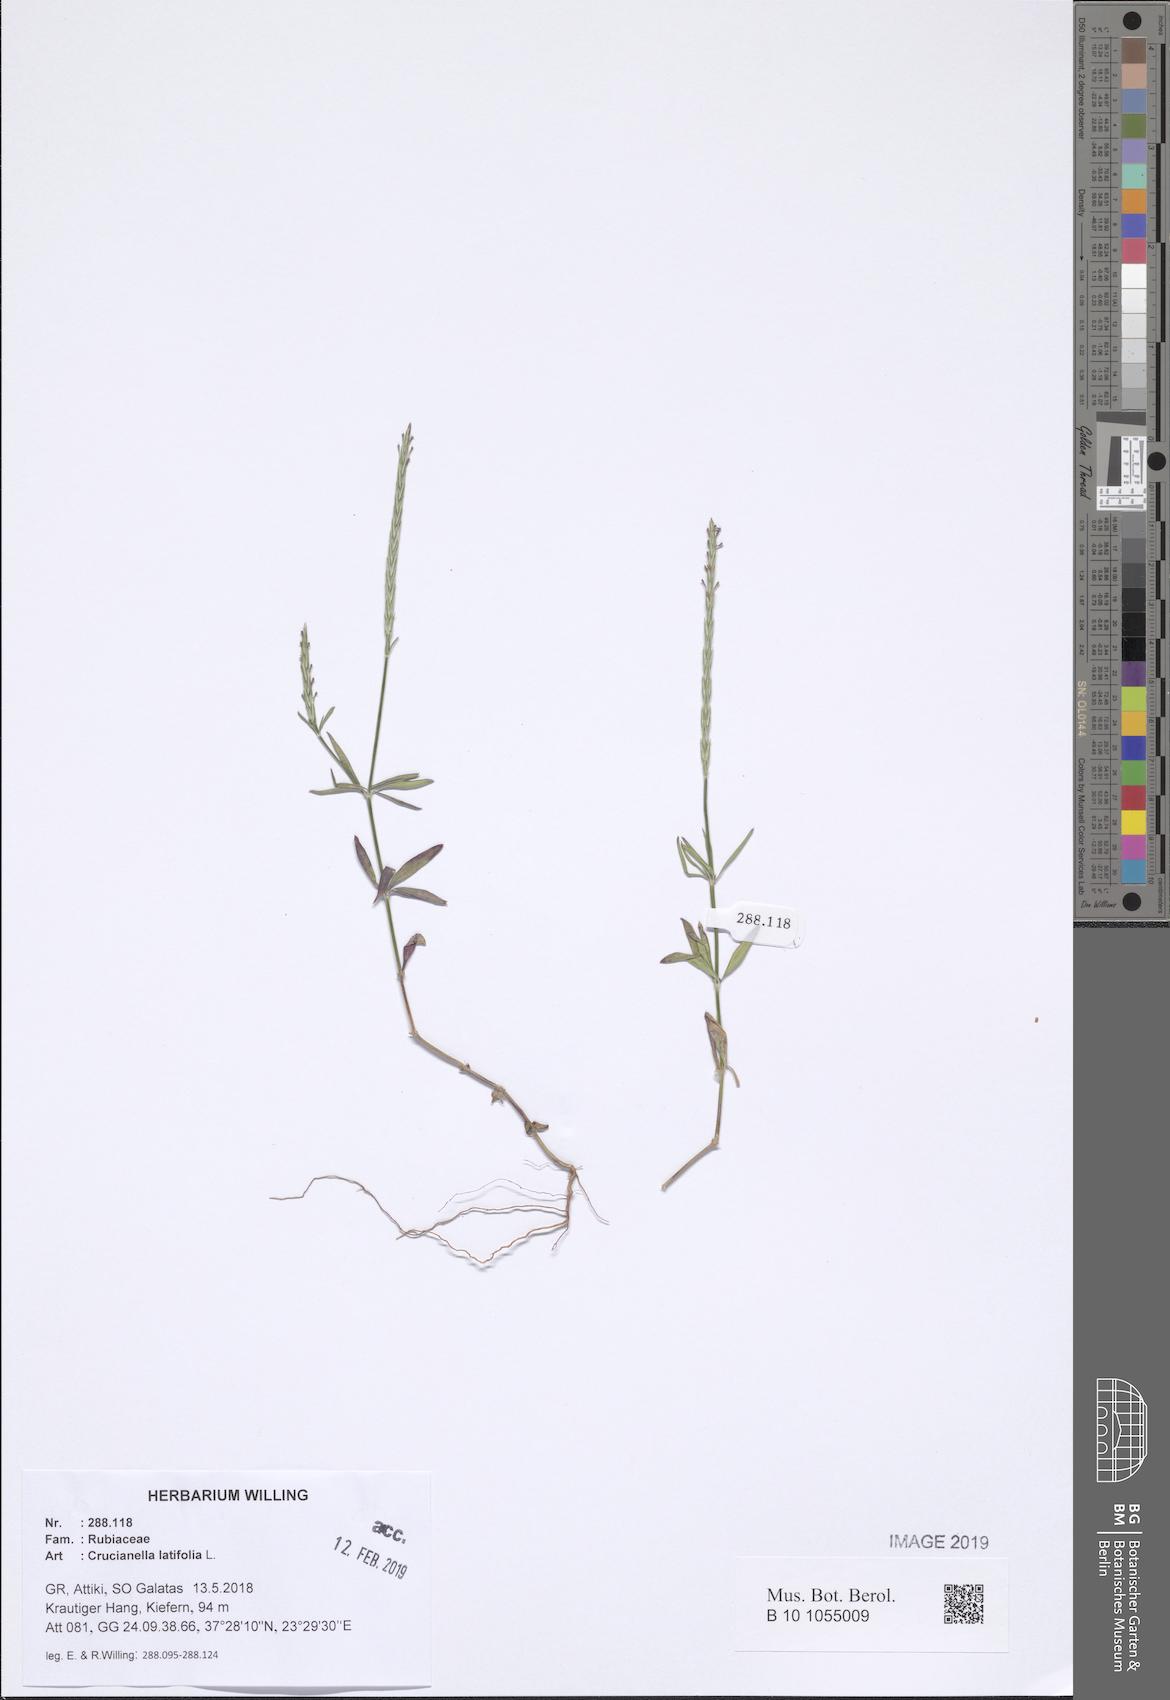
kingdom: Plantae
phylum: Tracheophyta
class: Magnoliopsida
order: Gentianales
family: Rubiaceae
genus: Crucianella
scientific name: Crucianella latifolia
